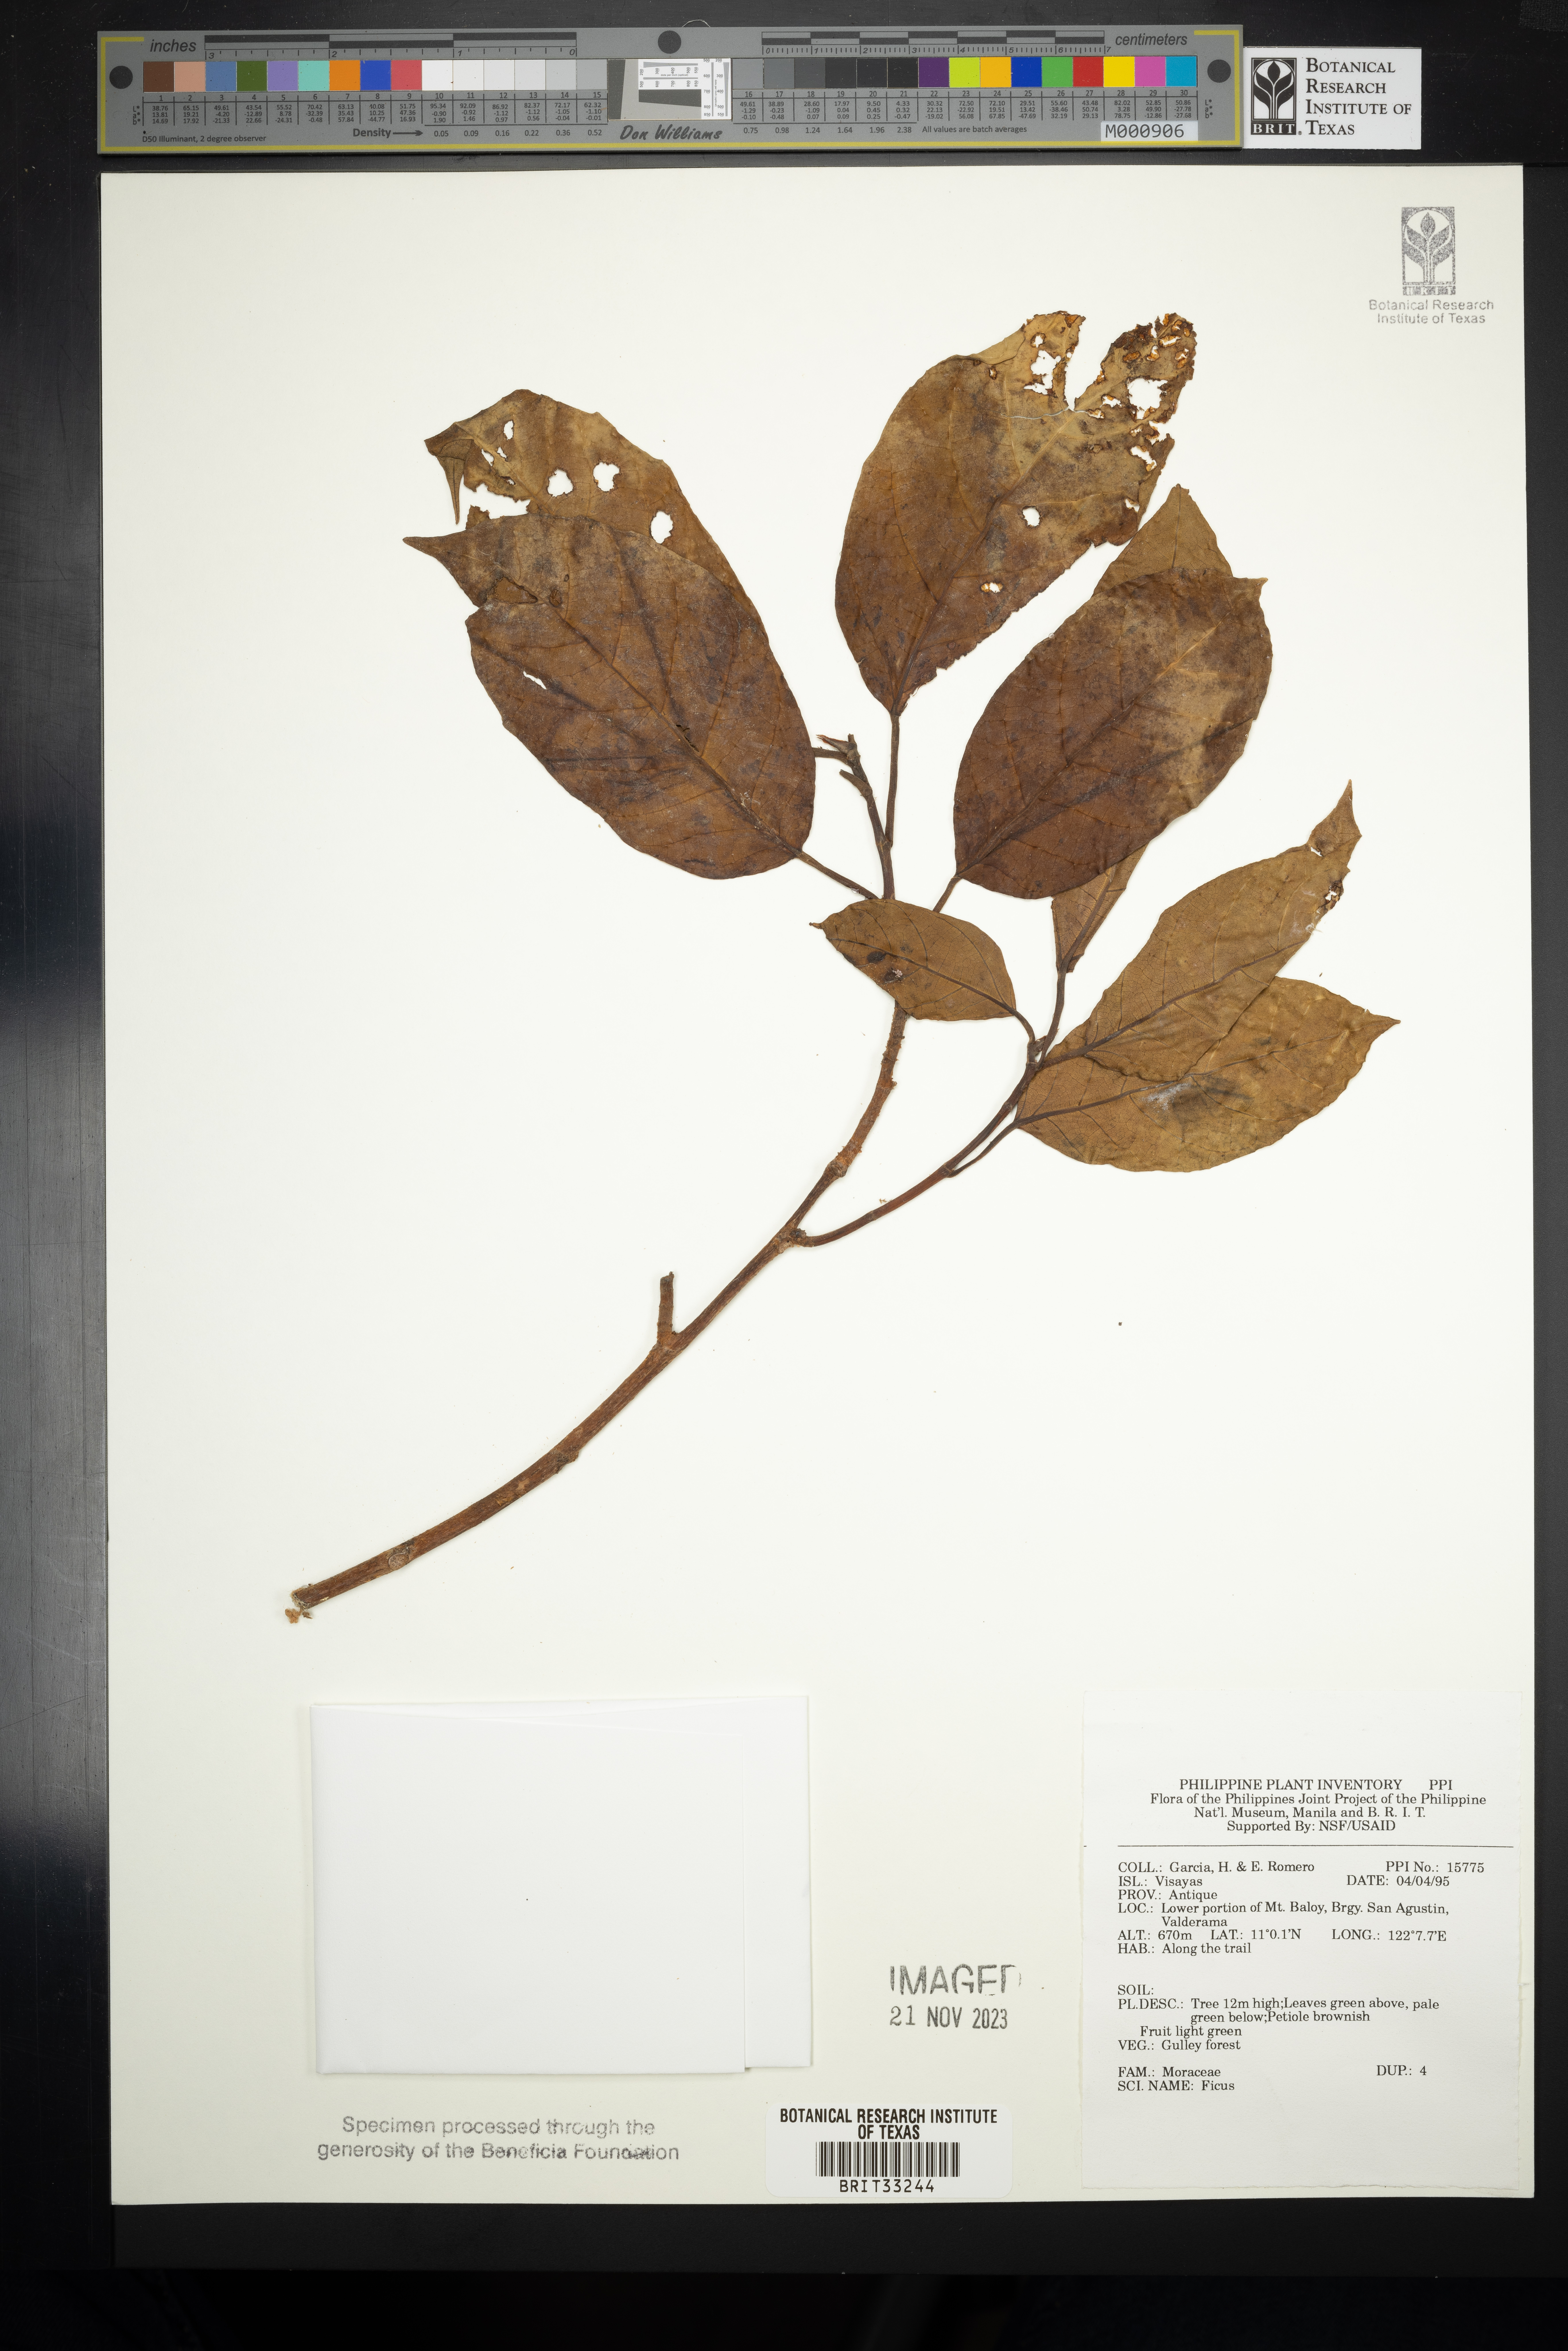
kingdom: Plantae
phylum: Tracheophyta
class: Magnoliopsida
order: Rosales
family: Moraceae
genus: Ficus
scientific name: Ficus
